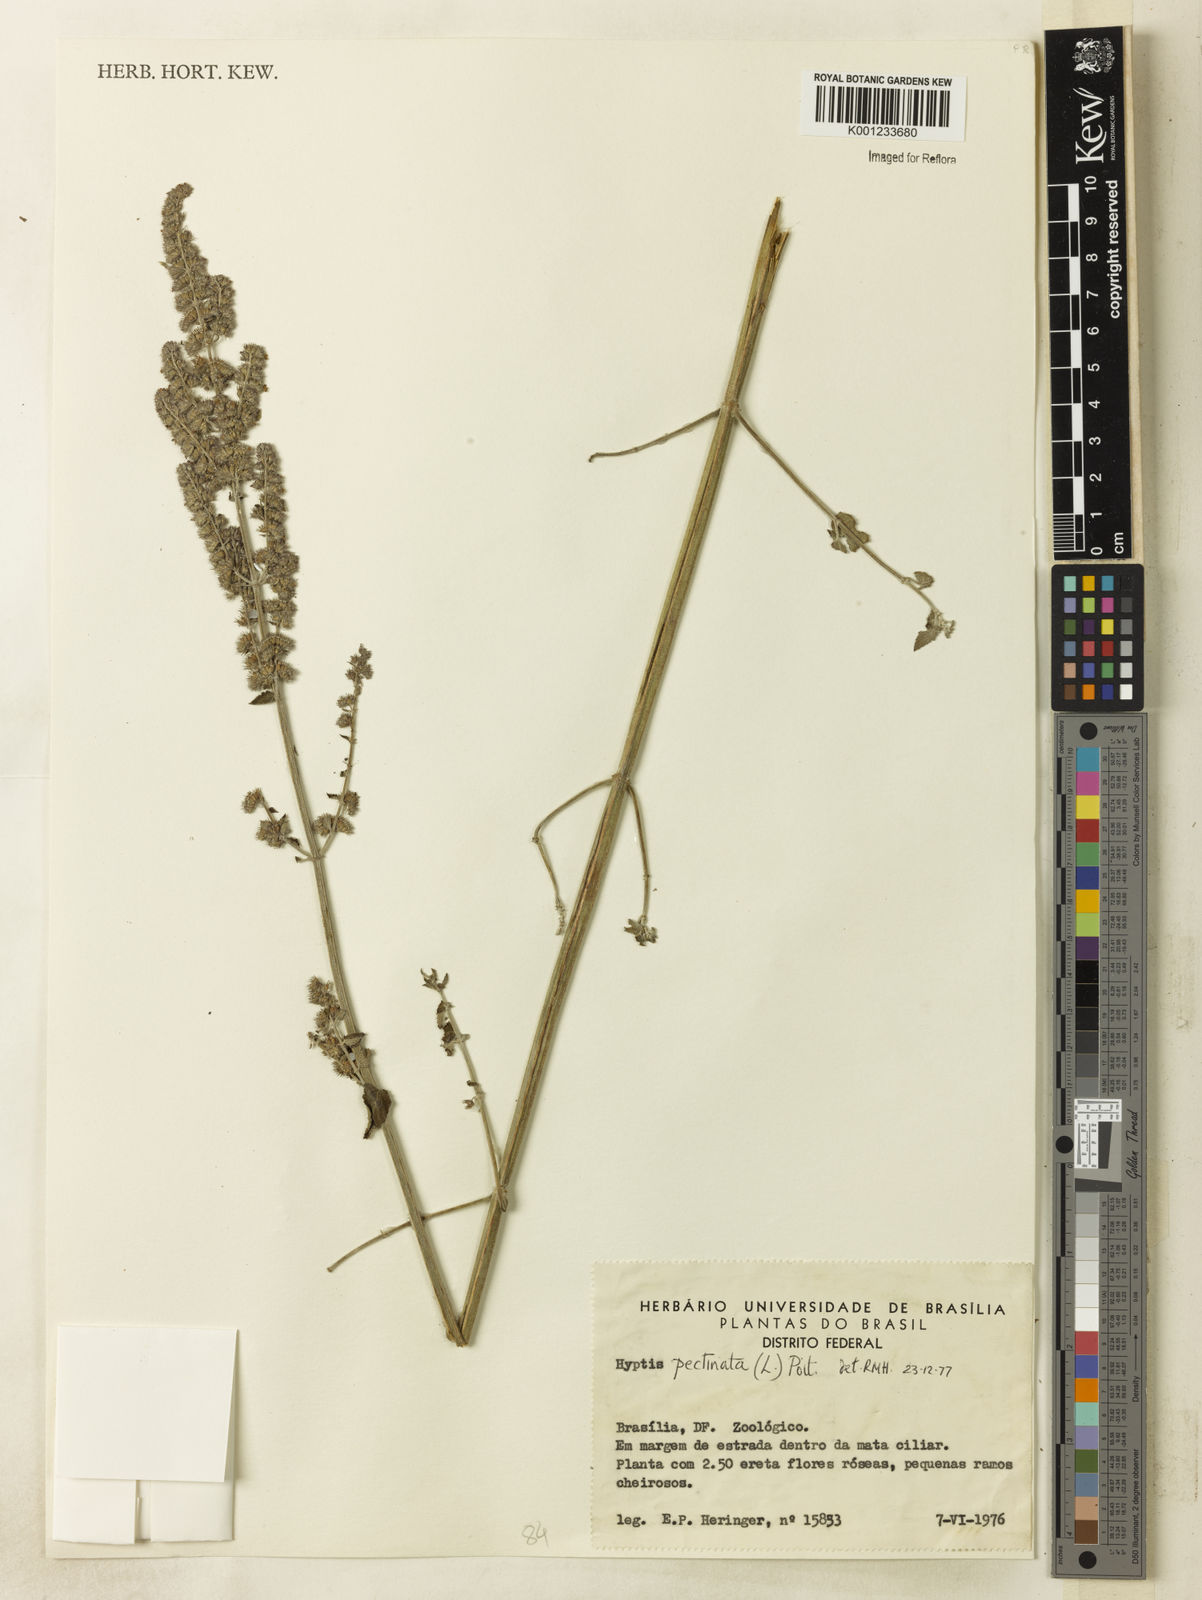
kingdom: Plantae
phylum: Tracheophyta
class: Magnoliopsida
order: Lamiales
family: Lamiaceae
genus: Mesosphaerum
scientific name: Mesosphaerum pectinatum
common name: Comb hyptis
